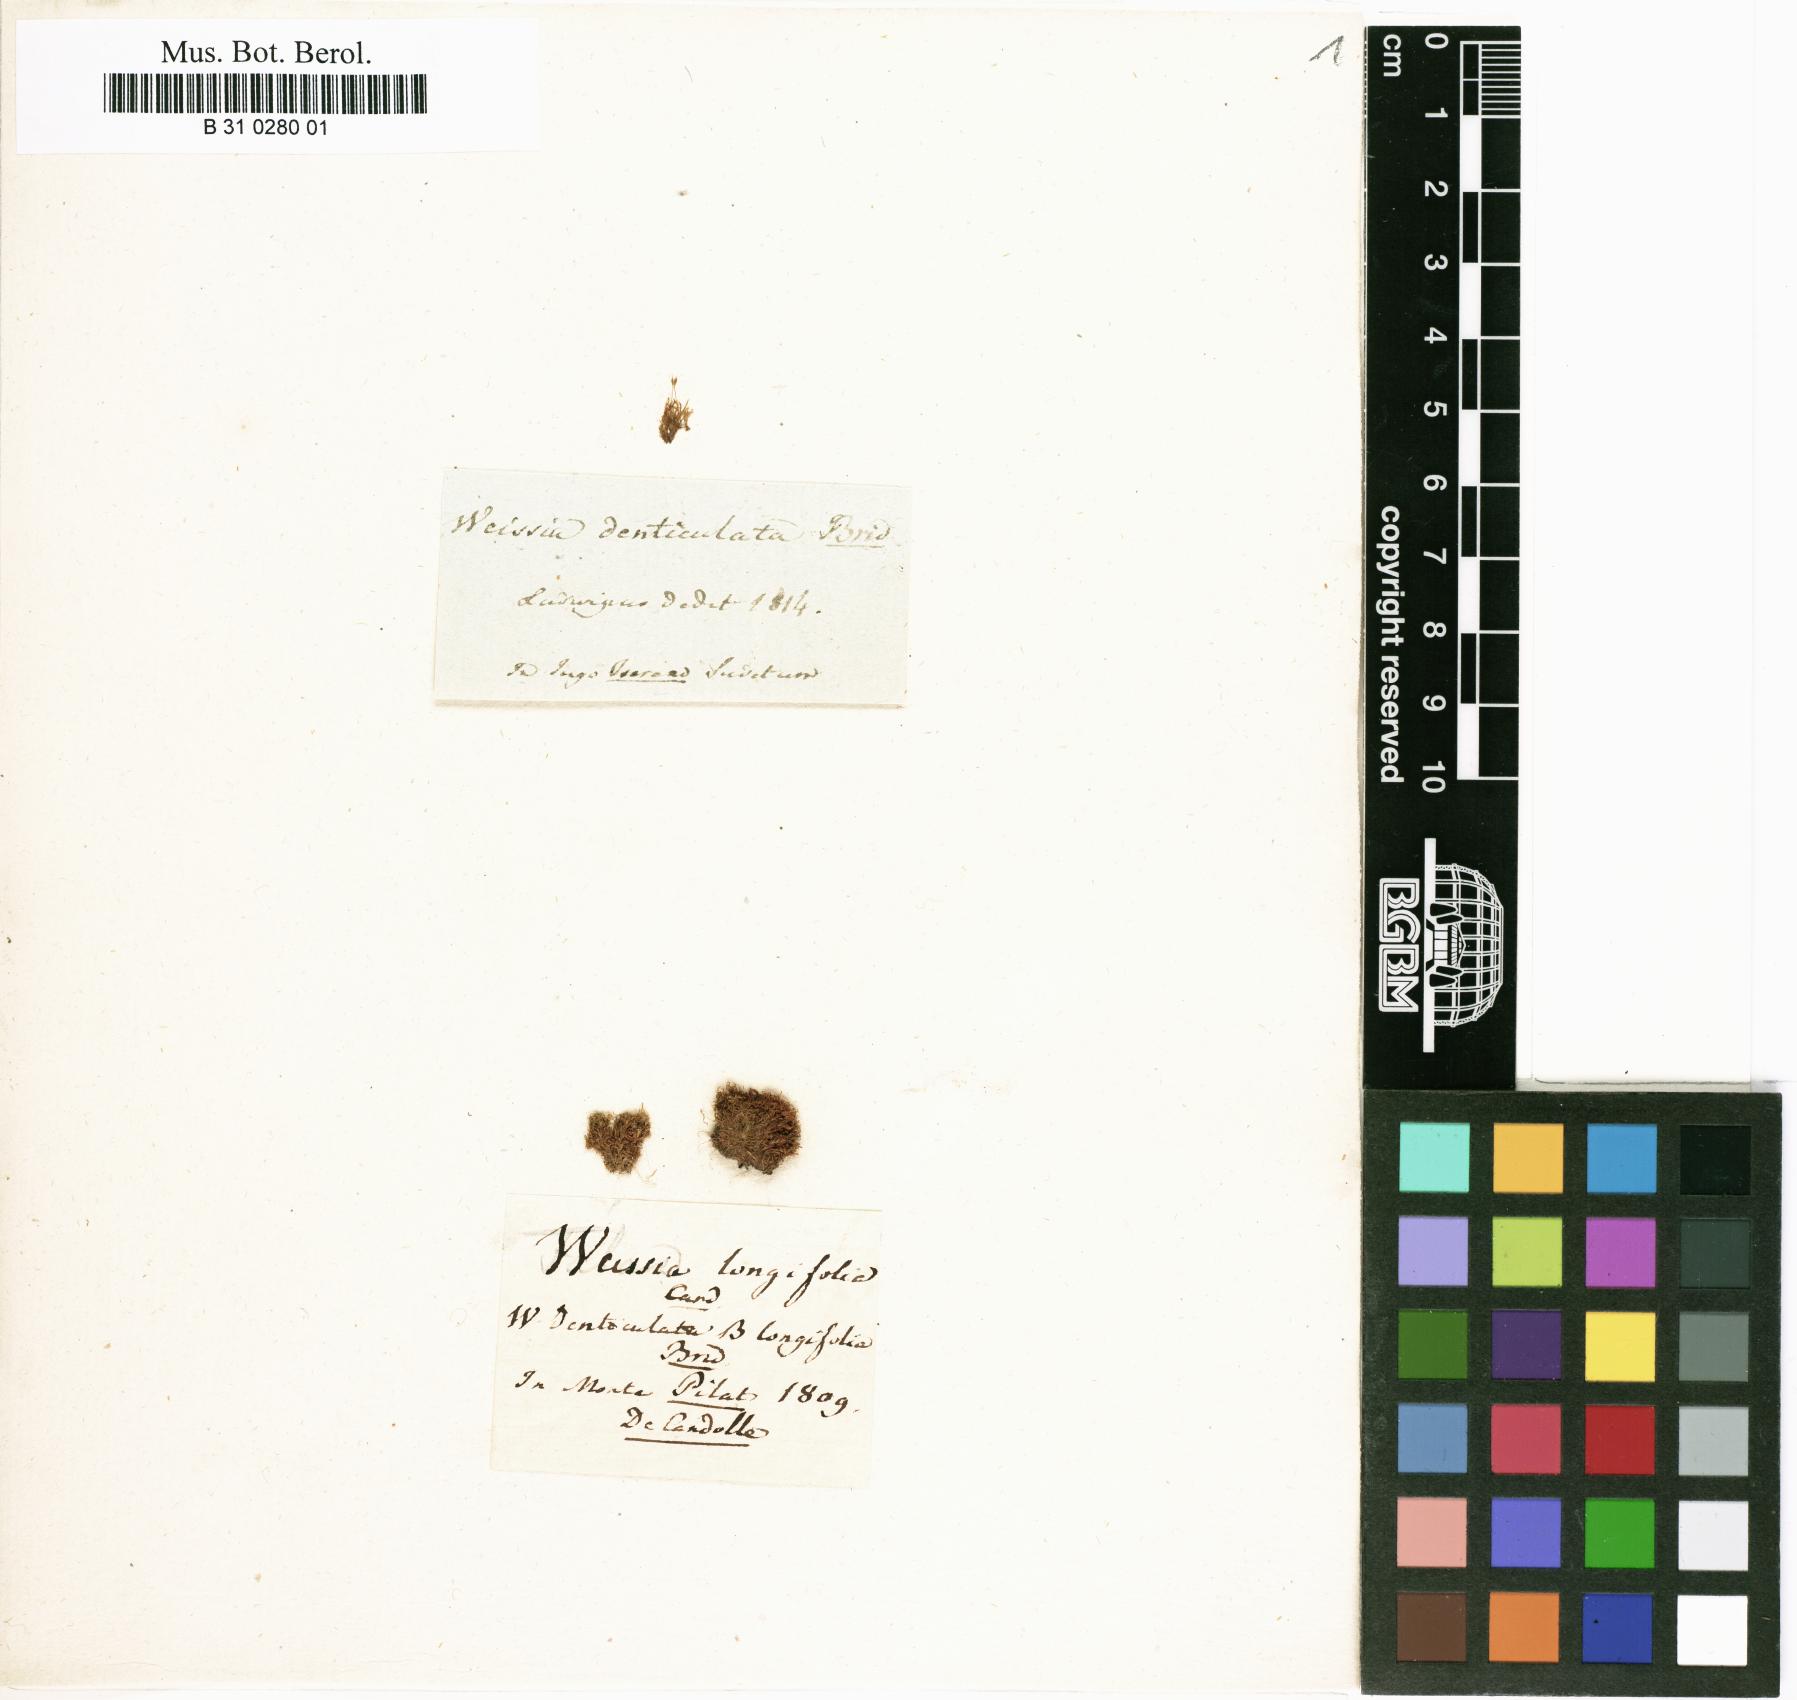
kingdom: Plantae
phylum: Bryophyta
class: Bryopsida
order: Dicranales
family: Rhabdoweisiaceae
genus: Rhabdoweisia
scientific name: Rhabdoweisia crispata
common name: Fine-toothed streak moss
